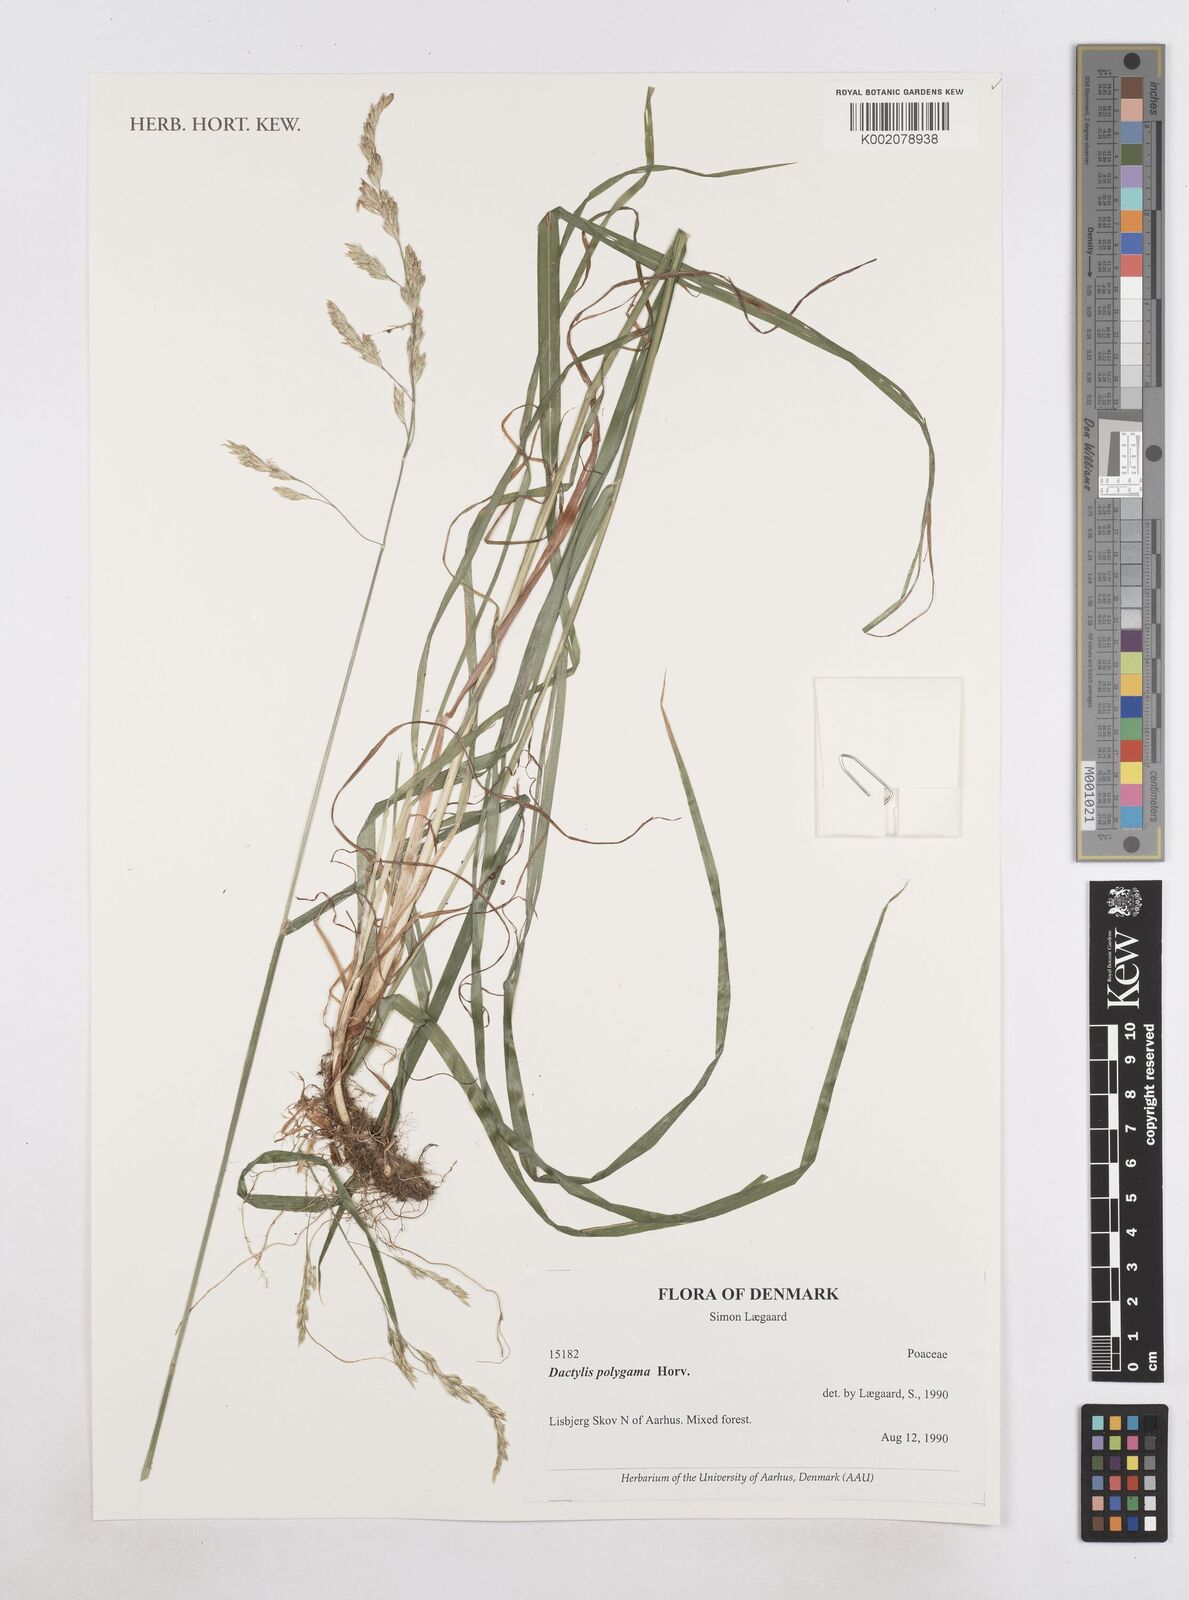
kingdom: Plantae
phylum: Tracheophyta
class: Liliopsida
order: Poales
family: Poaceae
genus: Dactylis
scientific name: Dactylis glomerata
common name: Orchardgrass
